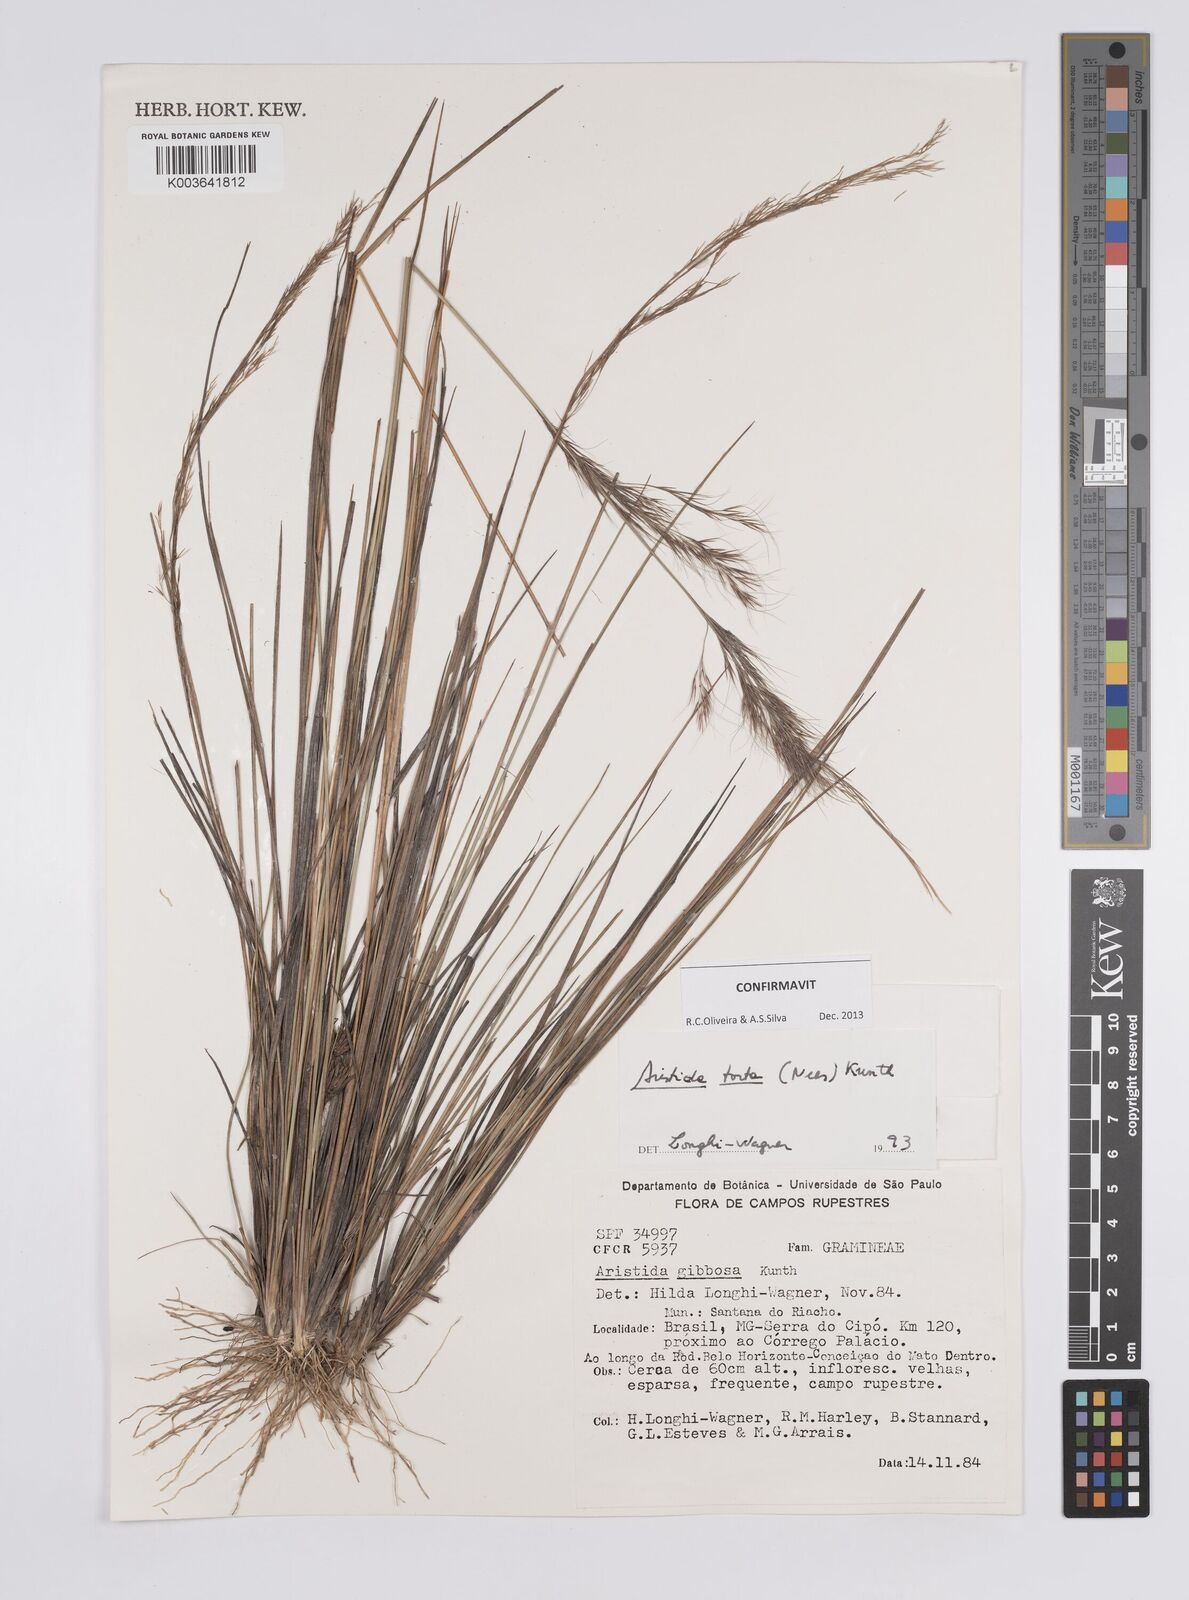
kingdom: Plantae
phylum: Tracheophyta
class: Liliopsida
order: Poales
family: Poaceae
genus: Aristida
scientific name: Aristida torta
